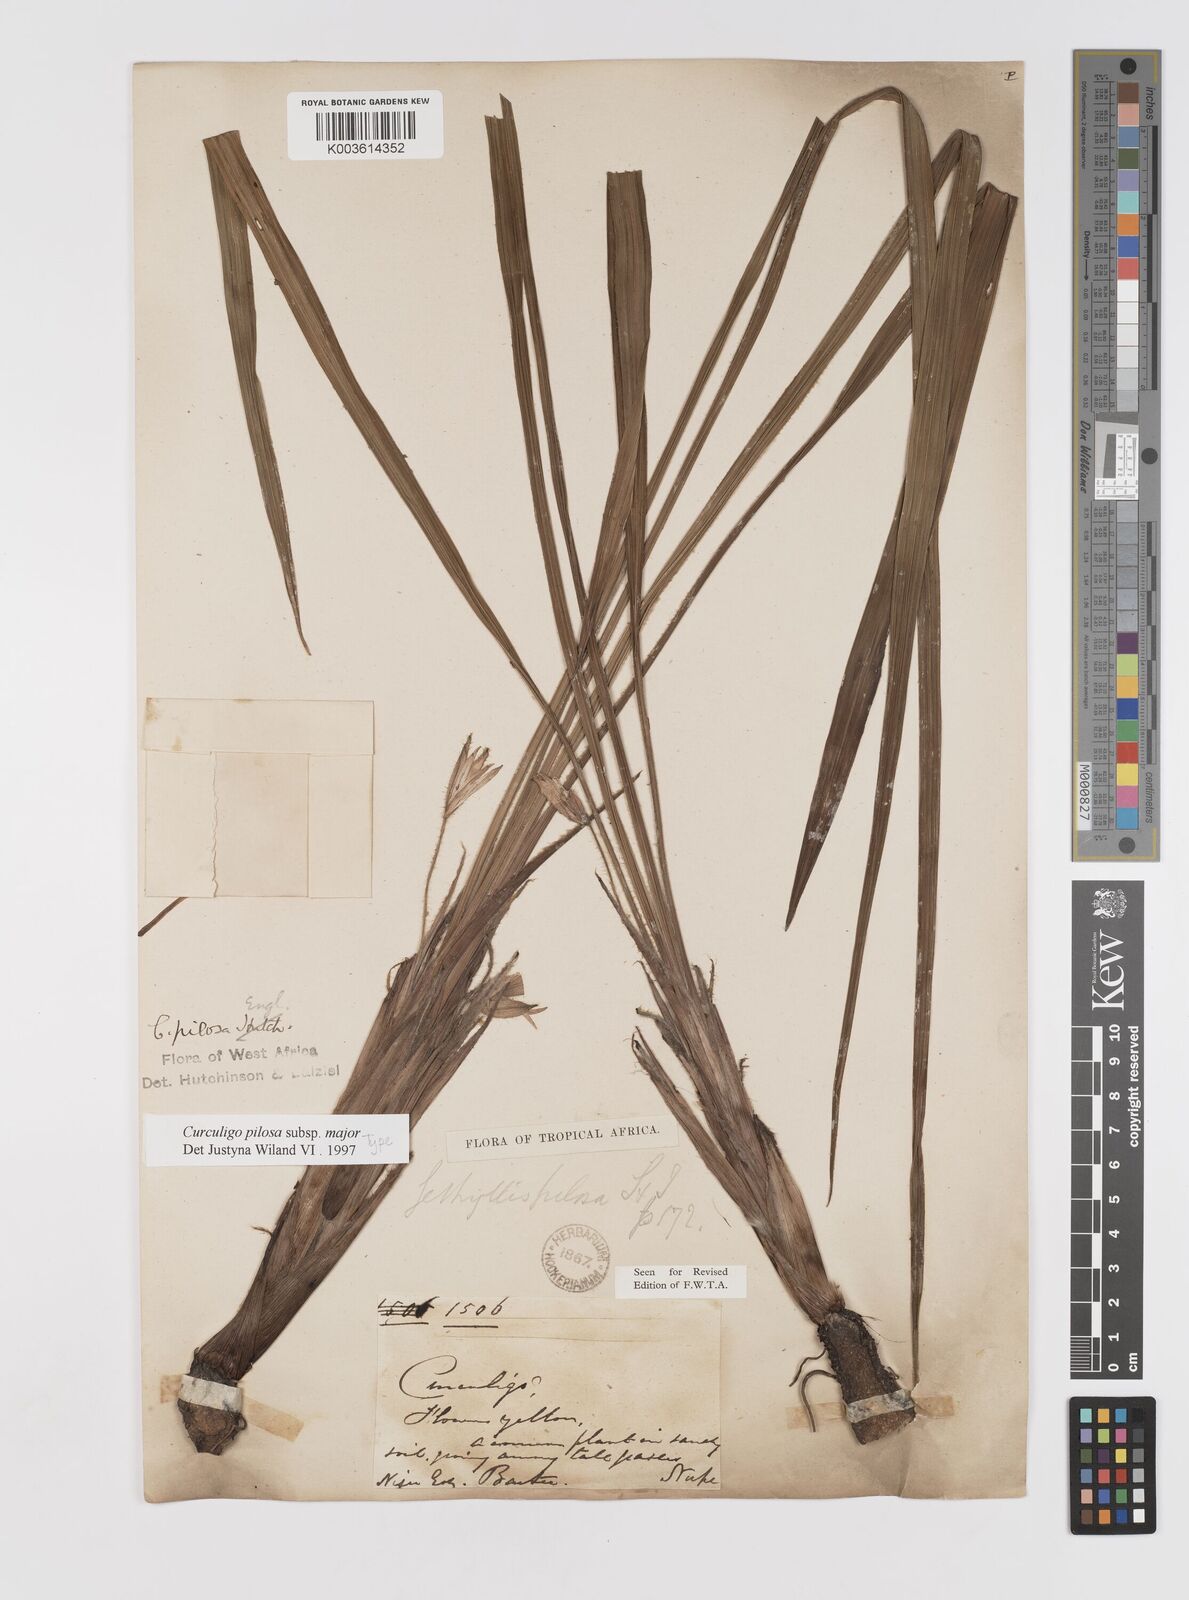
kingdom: Plantae
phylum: Tracheophyta
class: Liliopsida
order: Asparagales
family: Hypoxidaceae
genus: Curculigo
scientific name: Curculigo pilosa
